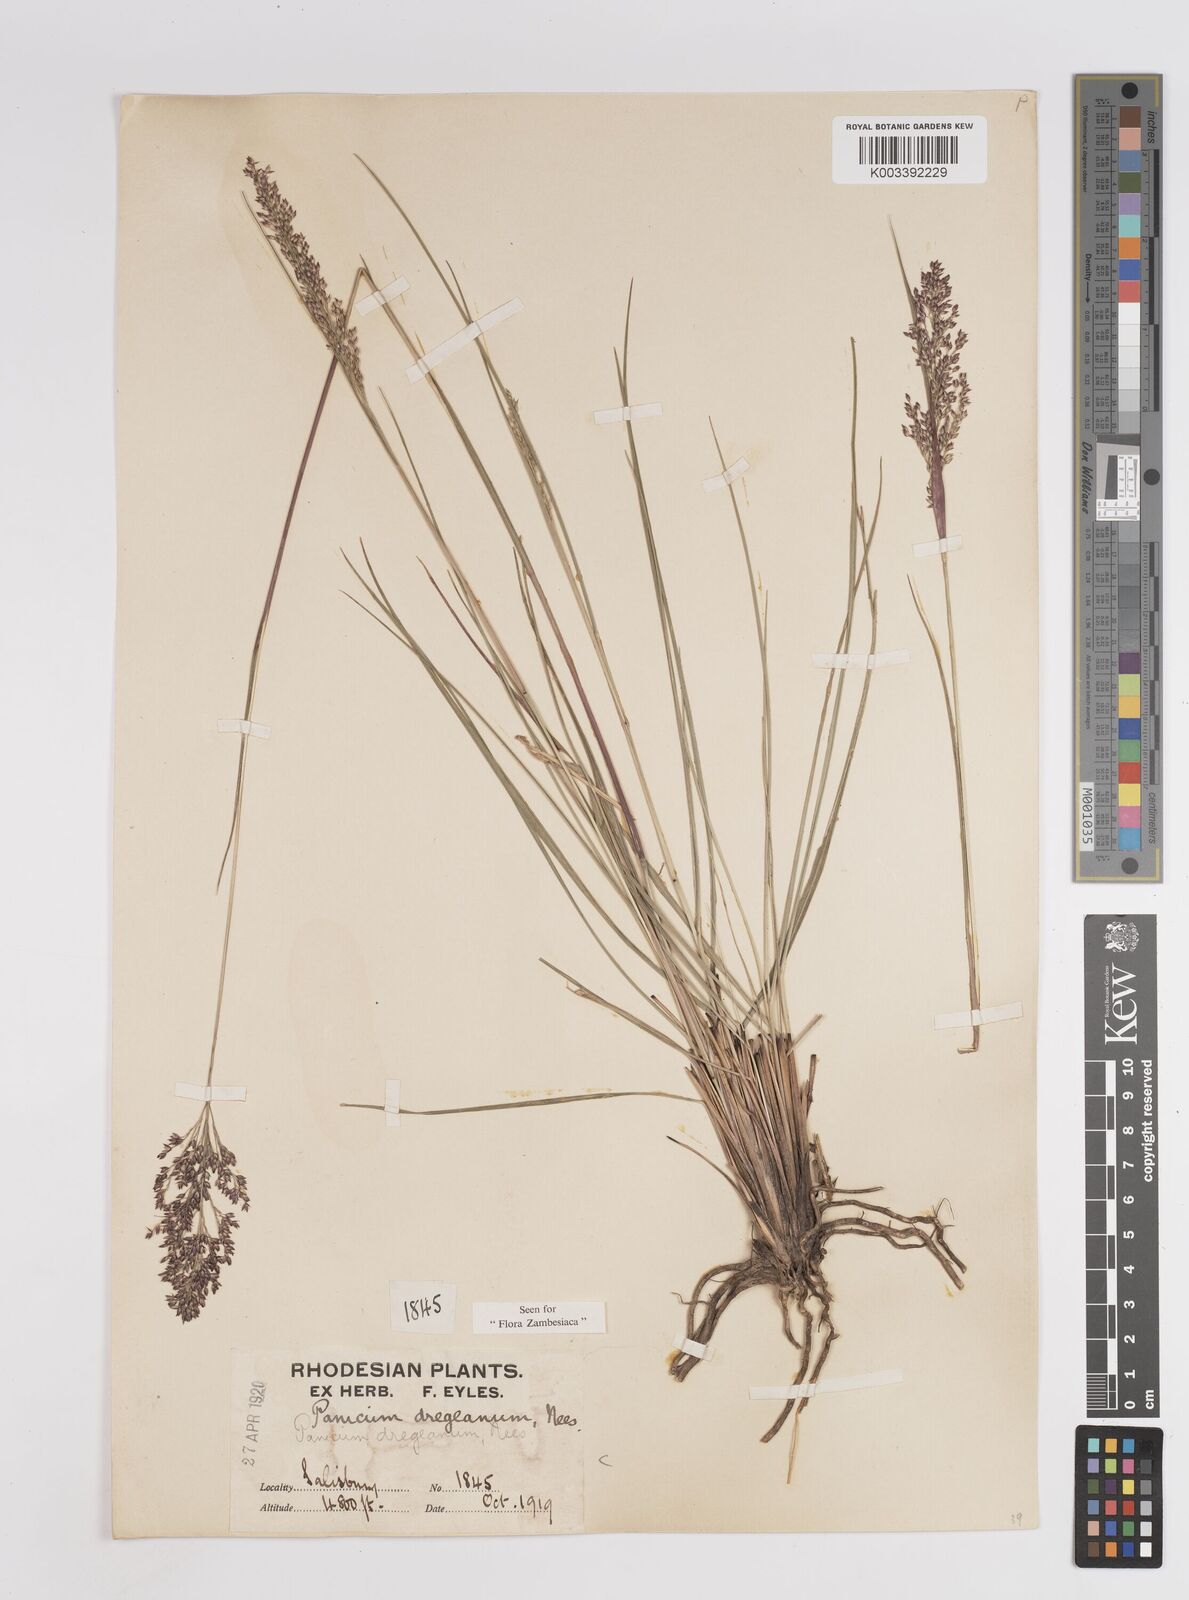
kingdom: Plantae
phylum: Tracheophyta
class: Liliopsida
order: Poales
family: Poaceae
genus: Panicum
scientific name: Panicum dregeanum
